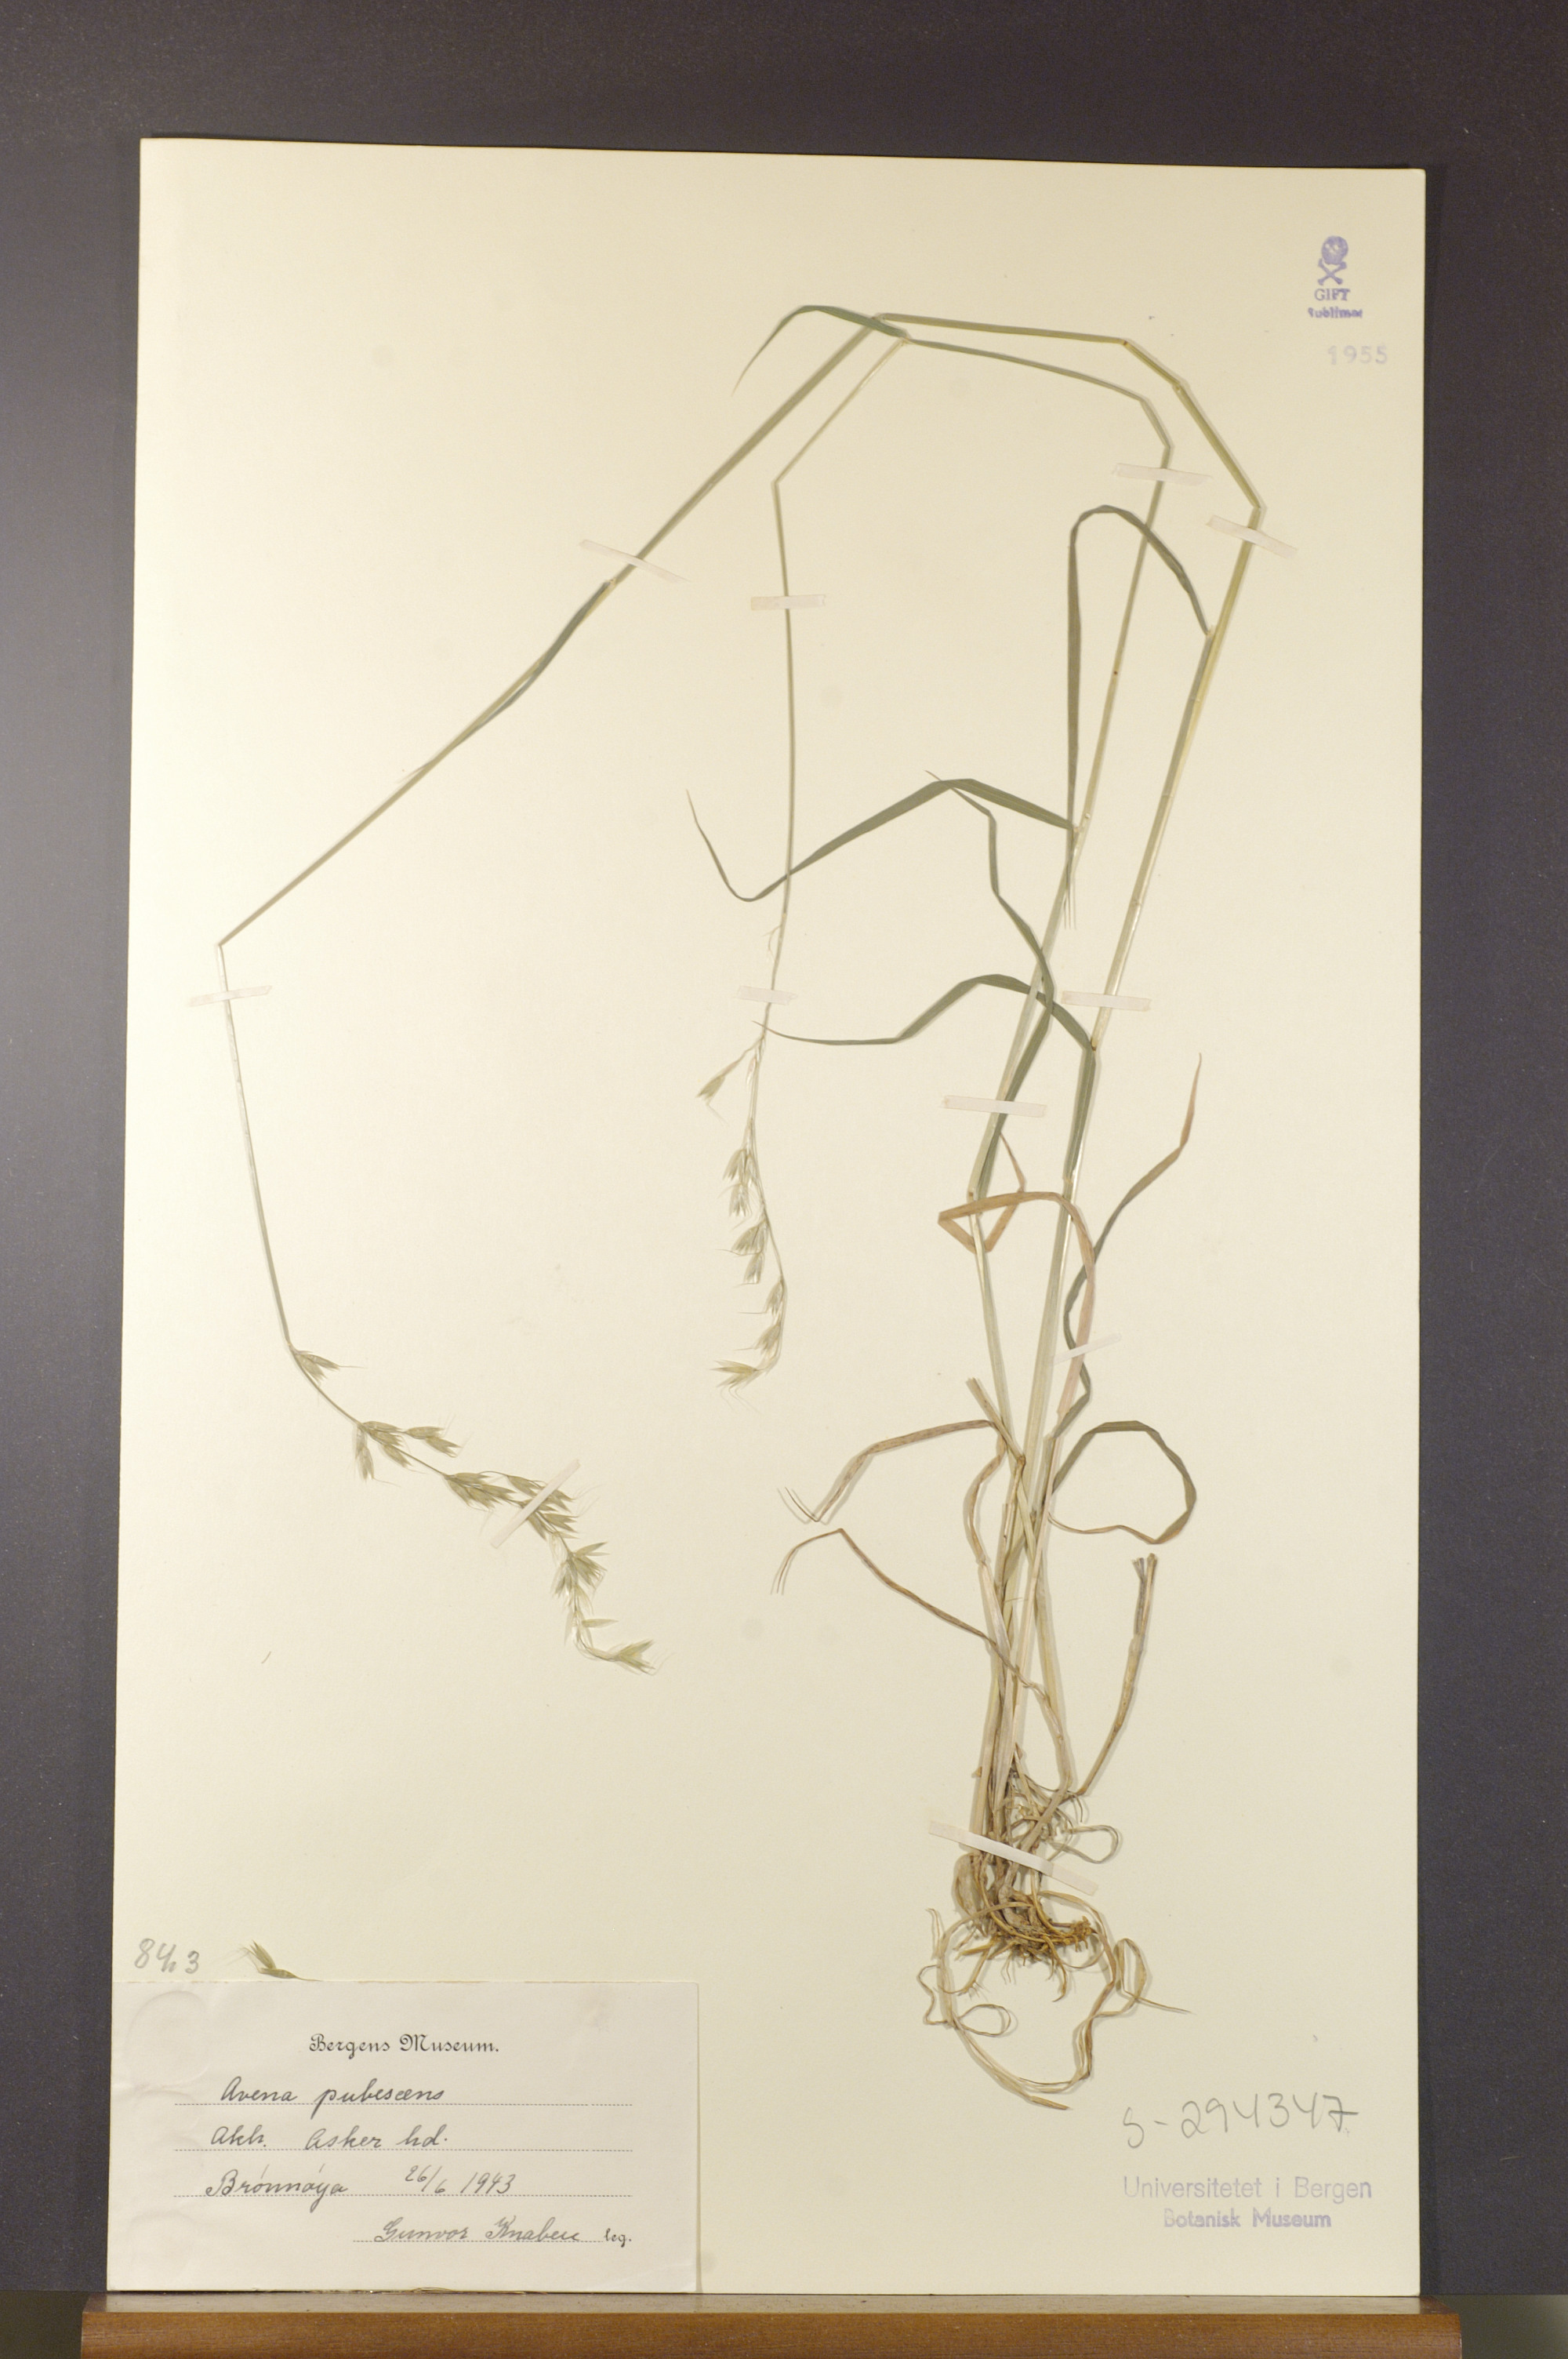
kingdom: Plantae
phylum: Tracheophyta
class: Liliopsida
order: Poales
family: Poaceae
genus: Avenula
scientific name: Avenula pubescens
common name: Downy alpine oatgrass
